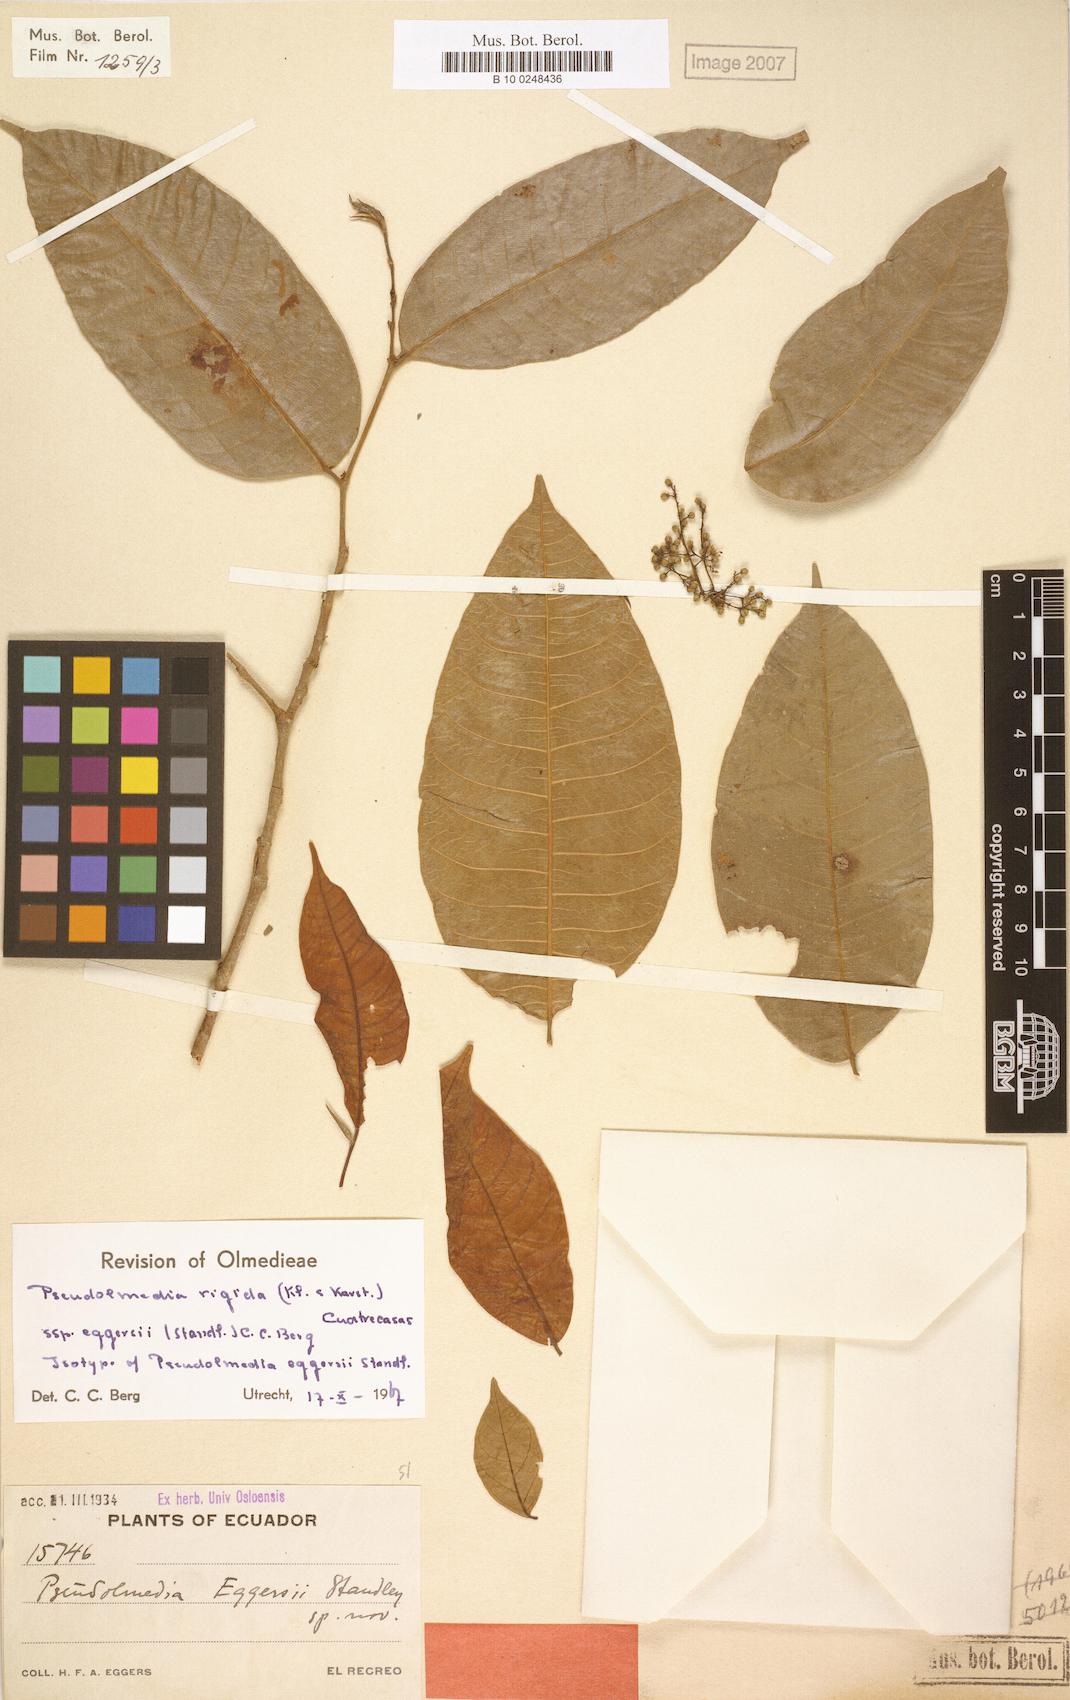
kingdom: Plantae
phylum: Tracheophyta
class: Magnoliopsida
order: Rosales
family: Moraceae
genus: Pseudolmedia
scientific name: Pseudolmedia rigida
